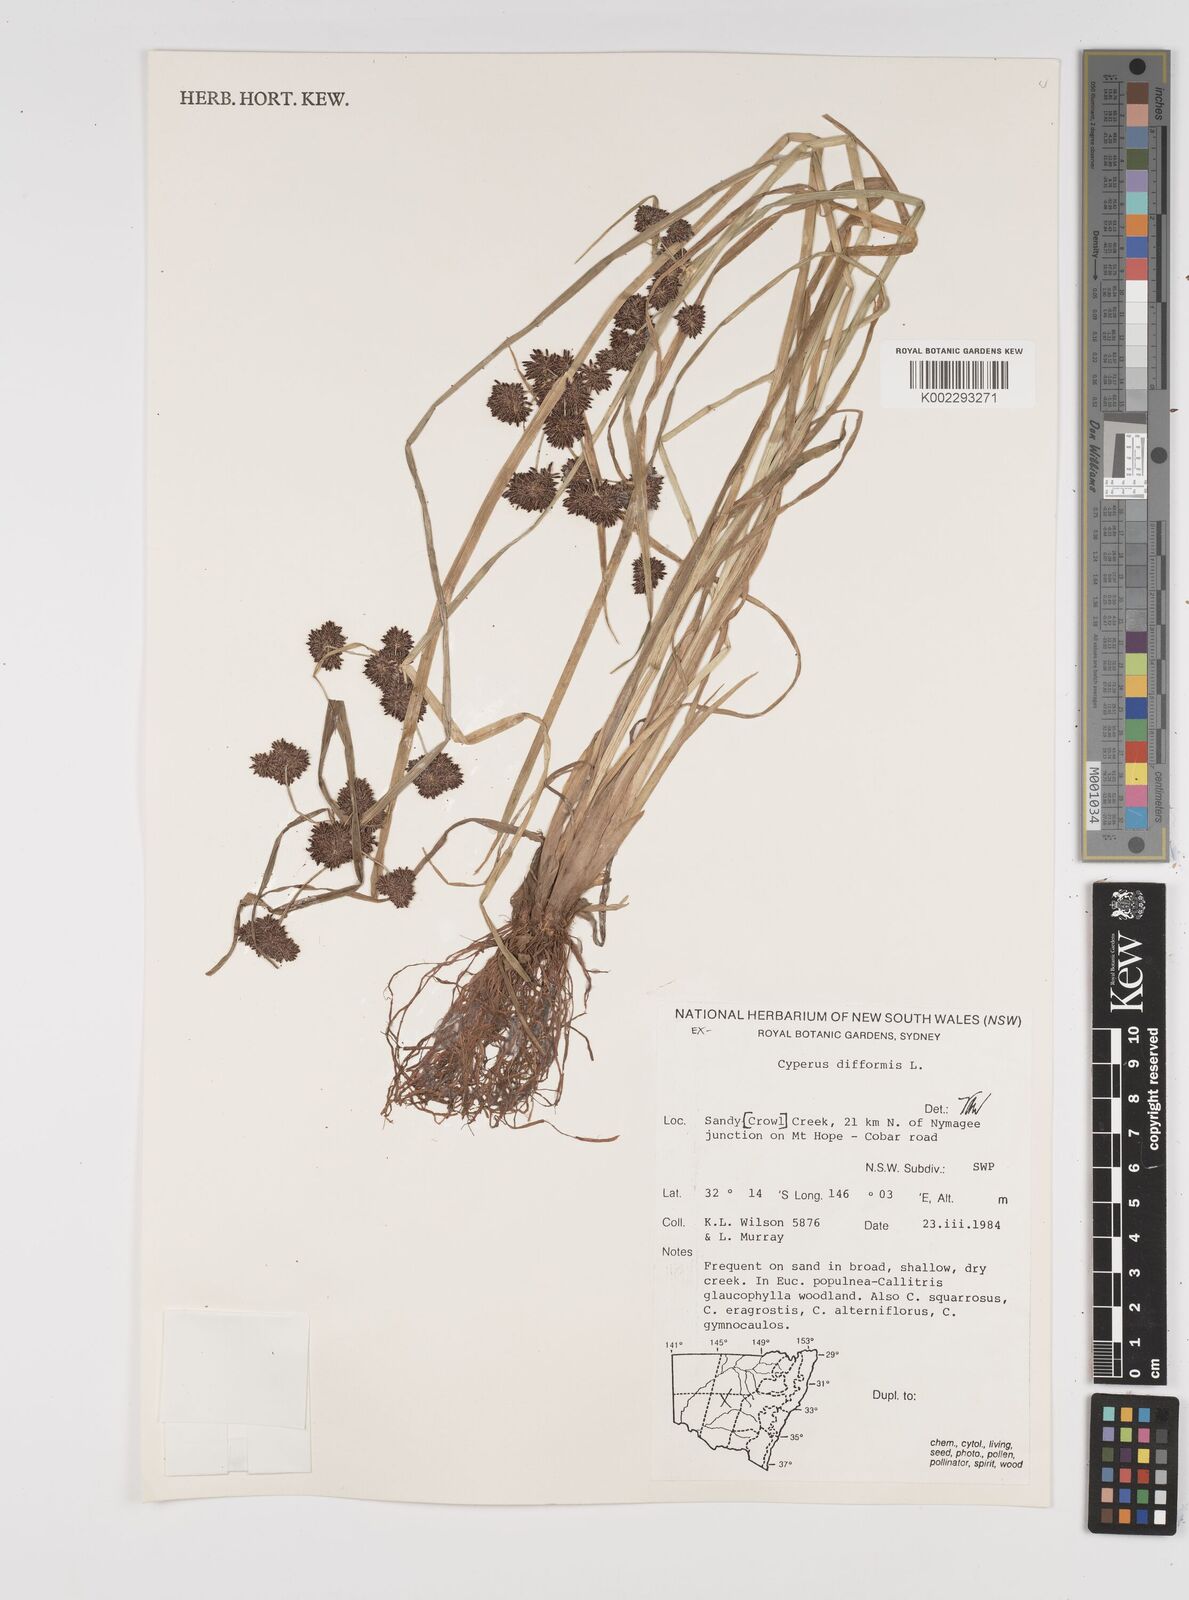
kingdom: Plantae
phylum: Tracheophyta
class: Liliopsida
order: Poales
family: Cyperaceae
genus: Cyperus
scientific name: Cyperus difformis
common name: Variable flatsedge
